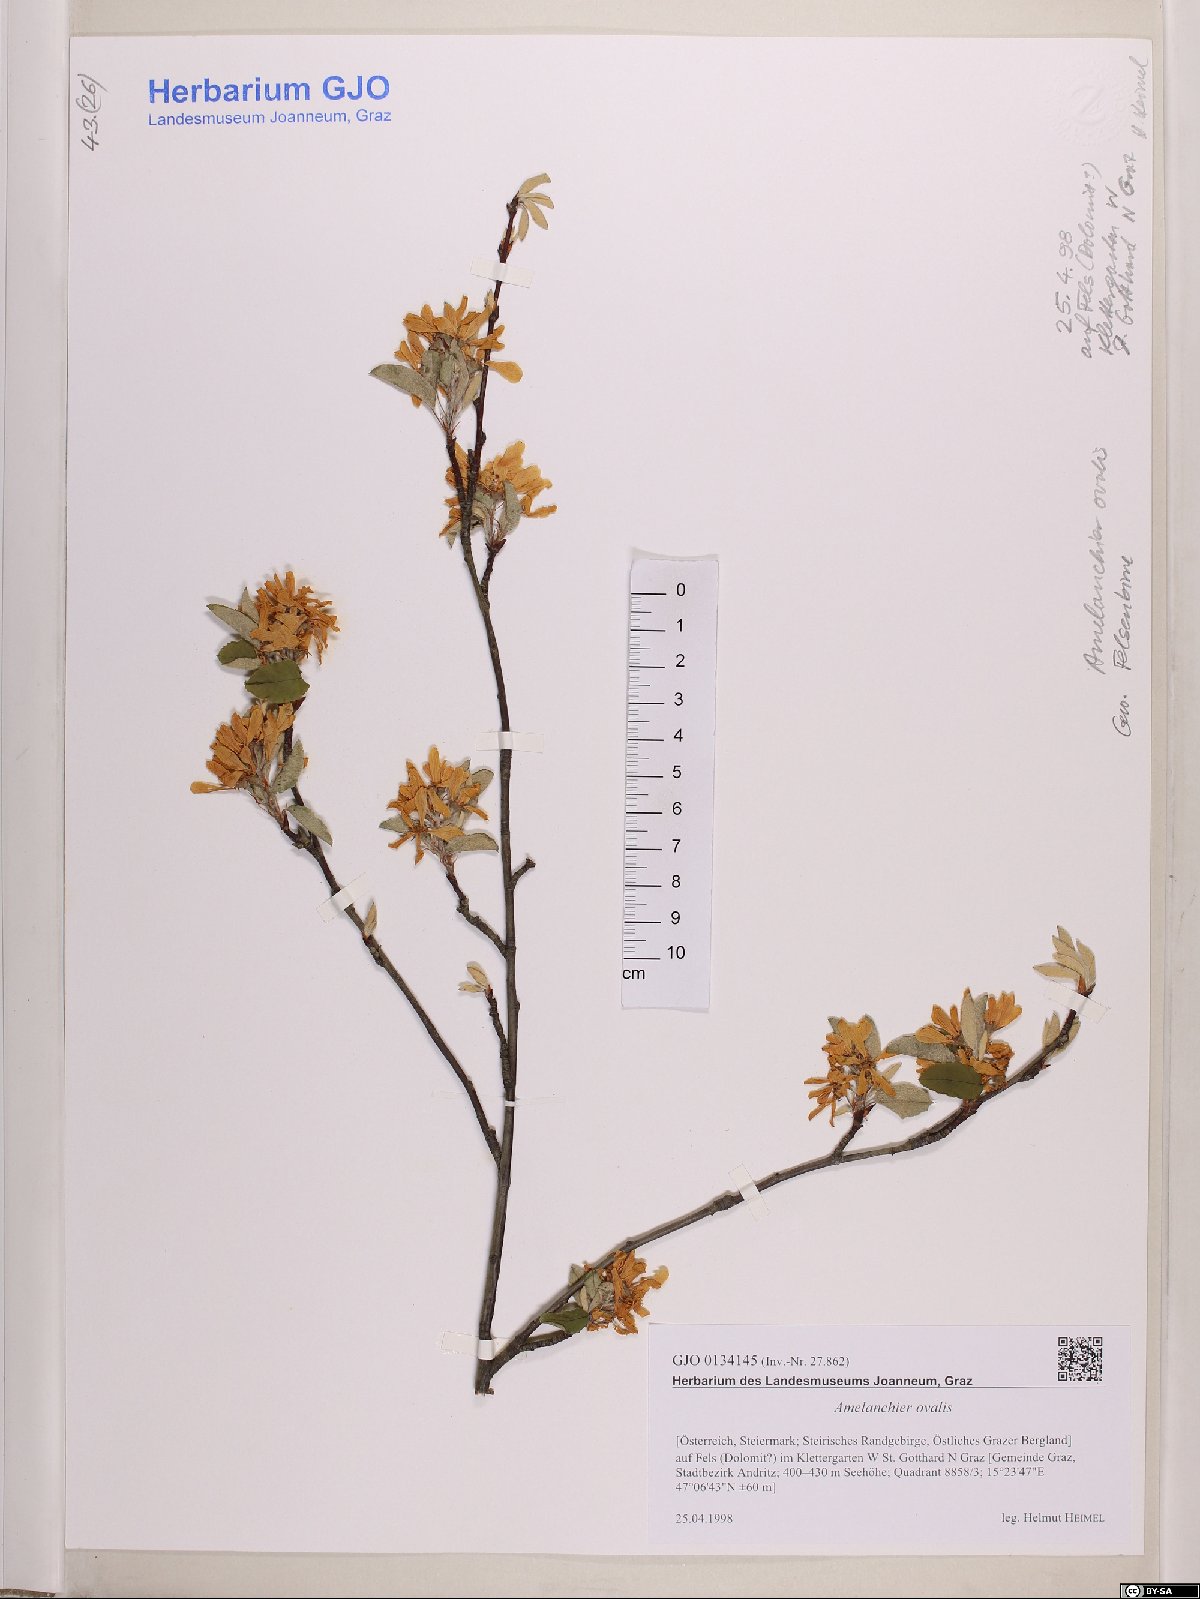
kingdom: Plantae
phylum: Tracheophyta
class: Magnoliopsida
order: Rosales
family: Rosaceae
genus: Amelanchier
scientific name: Amelanchier ovalis
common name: Serviceberry
